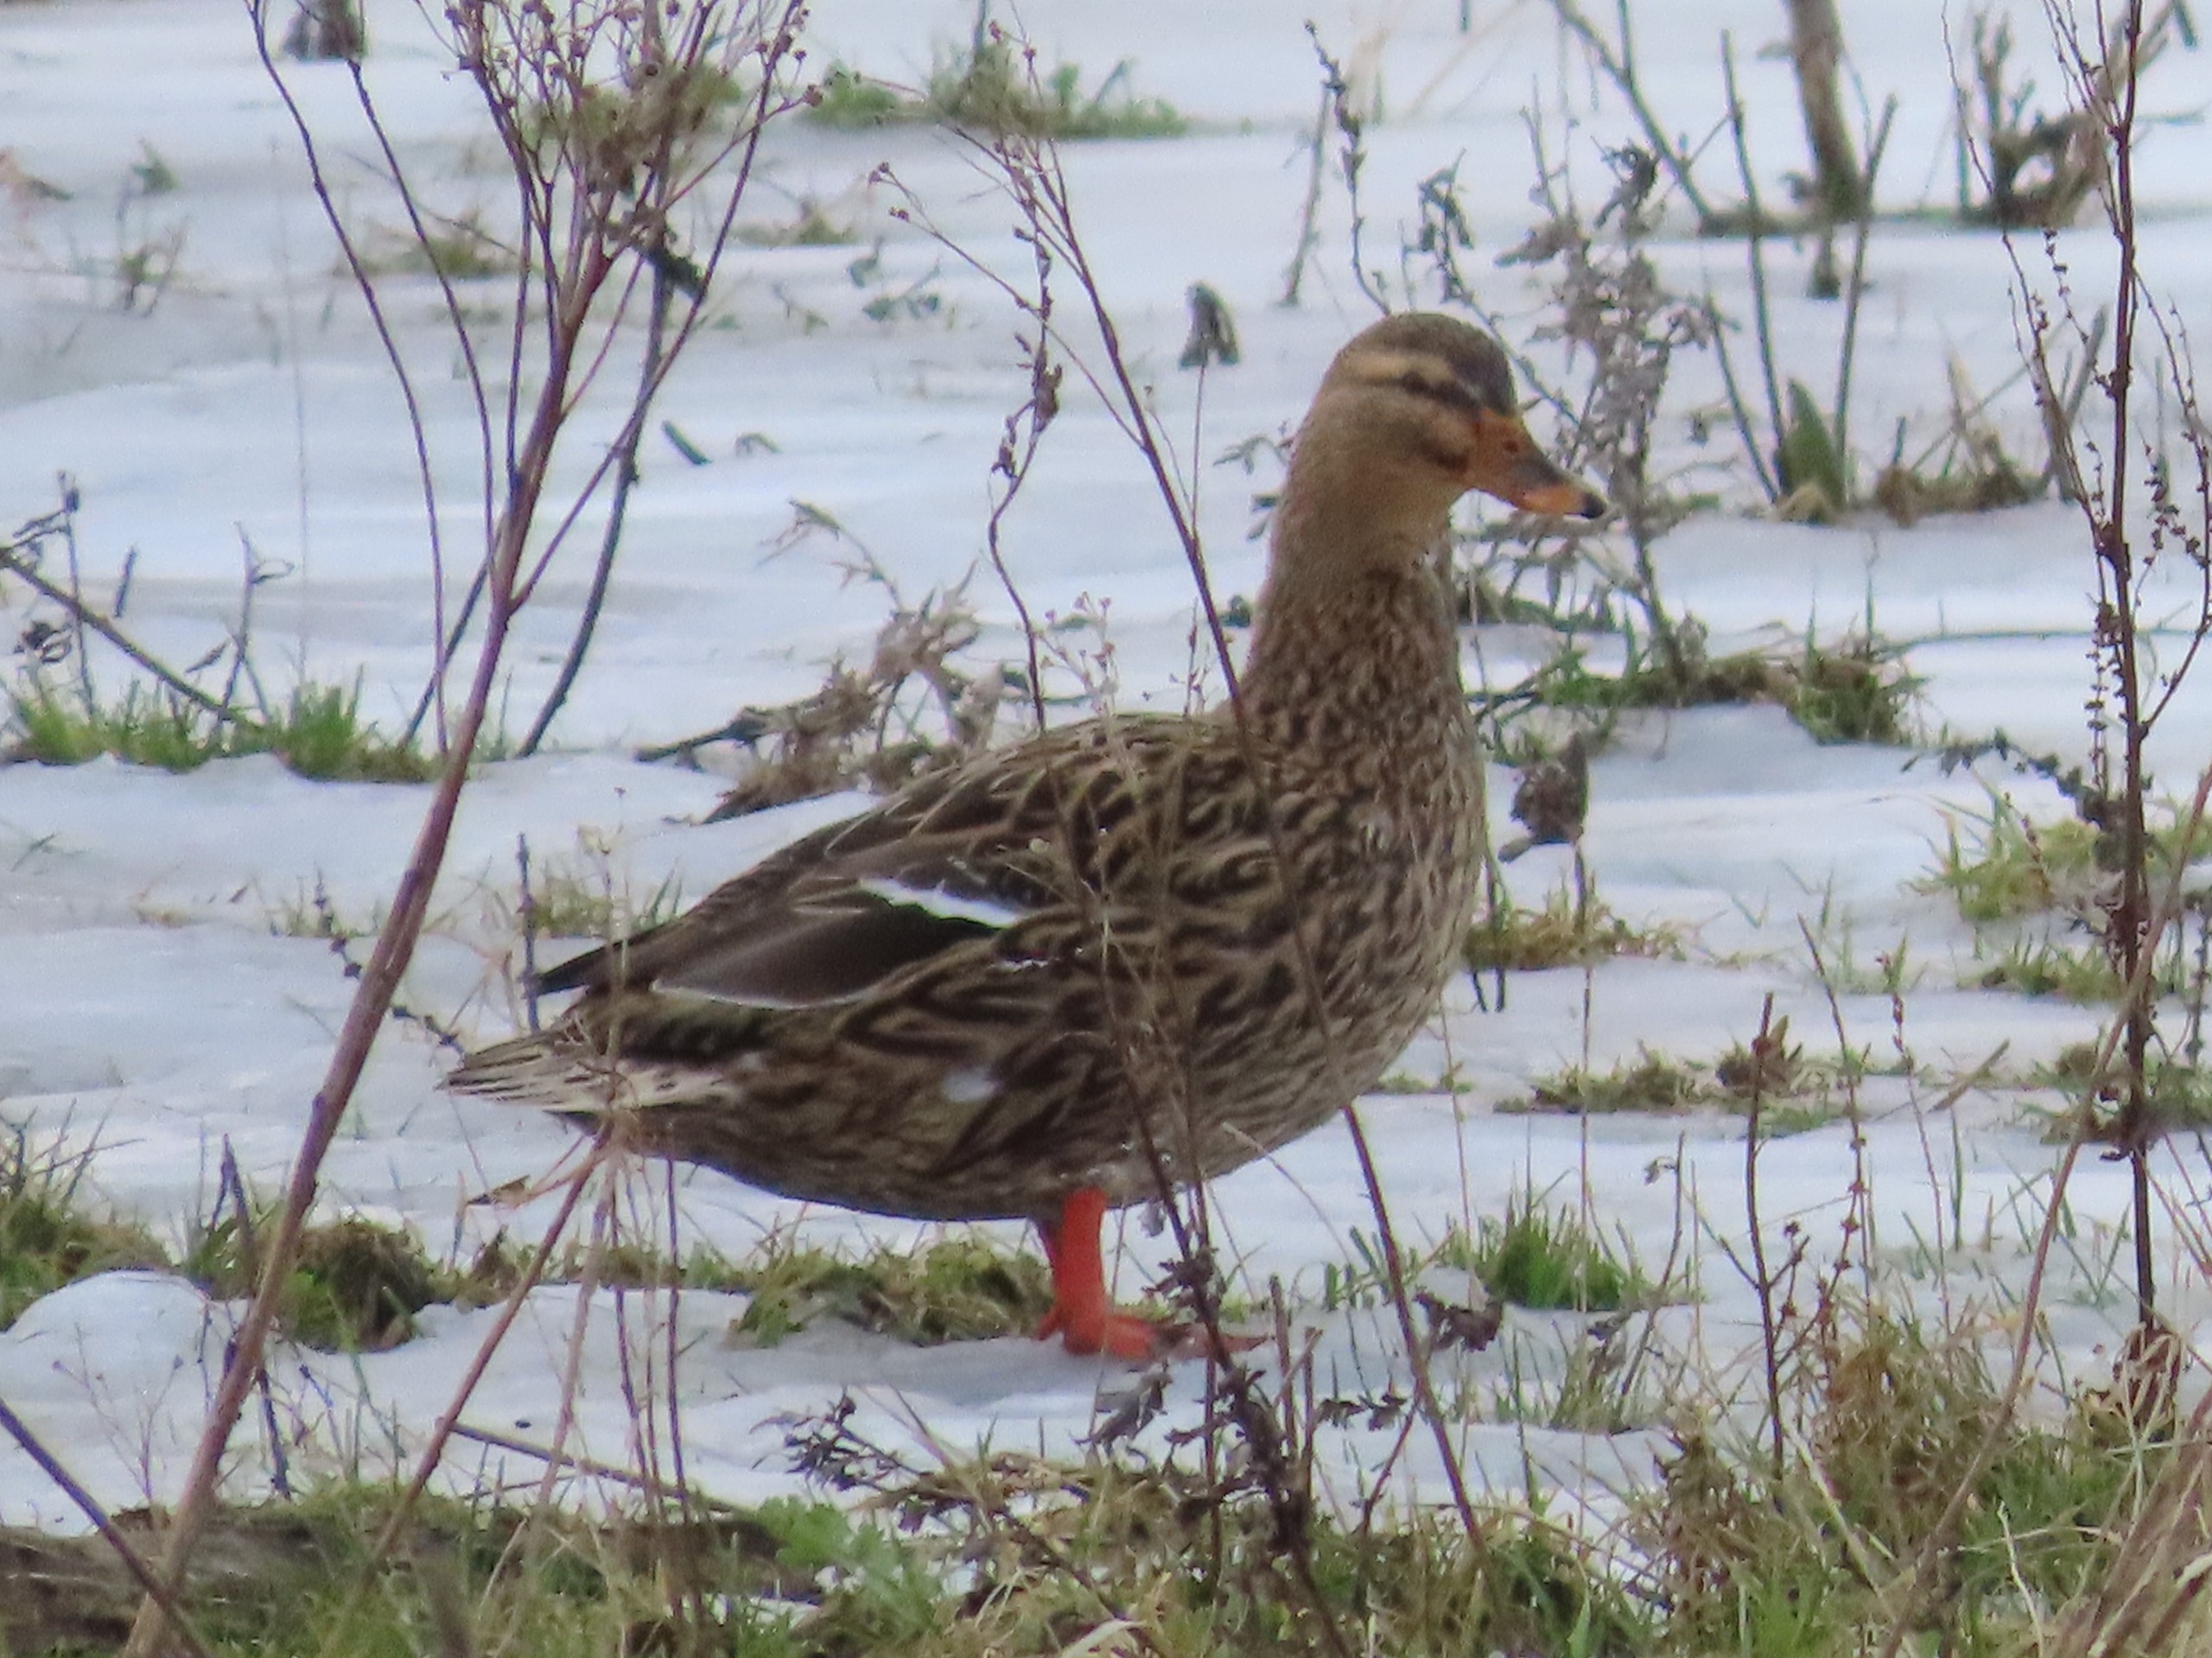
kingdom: Animalia
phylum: Chordata
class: Aves
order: Anseriformes
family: Anatidae
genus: Anas
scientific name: Anas platyrhynchos
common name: Gråand
